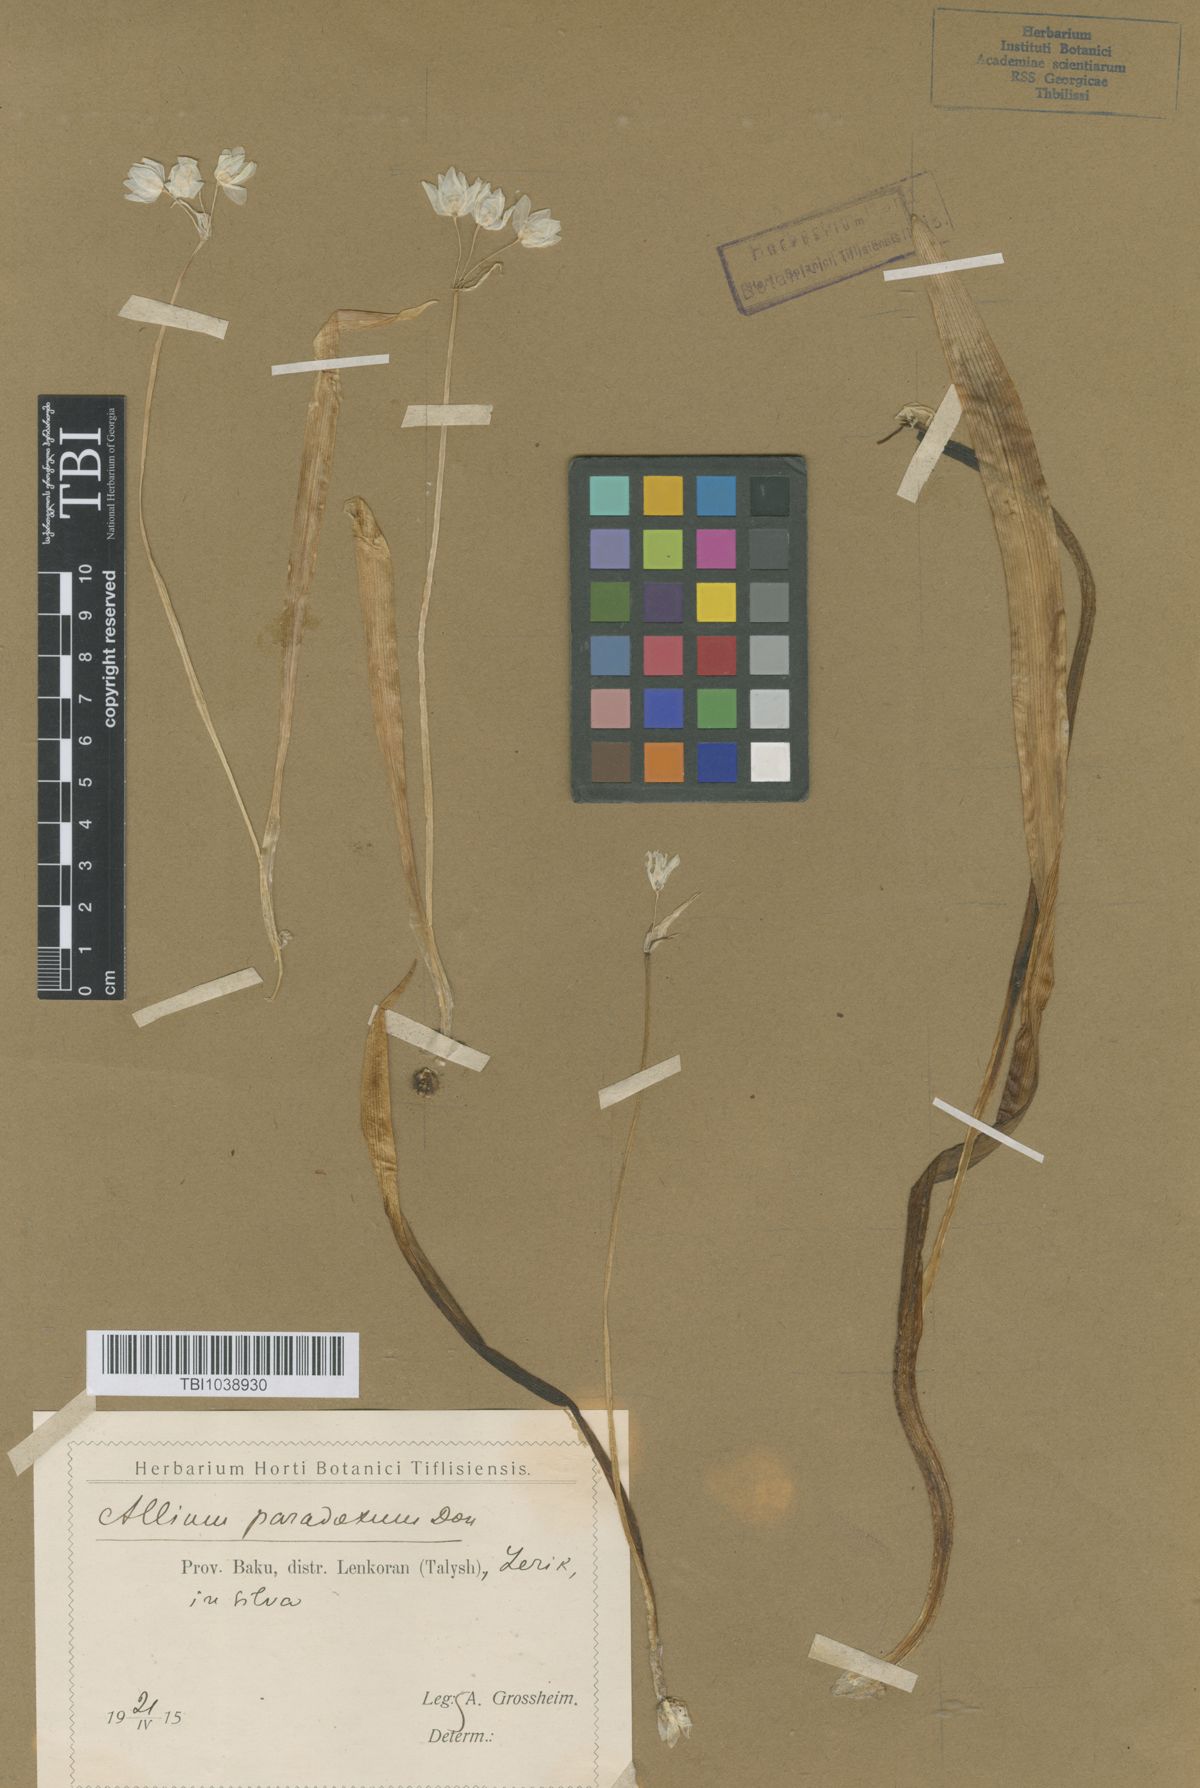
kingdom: Plantae
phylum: Tracheophyta
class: Liliopsida
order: Asparagales
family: Amaryllidaceae
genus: Allium
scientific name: Allium paradoxum
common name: Few-flowered garlic
